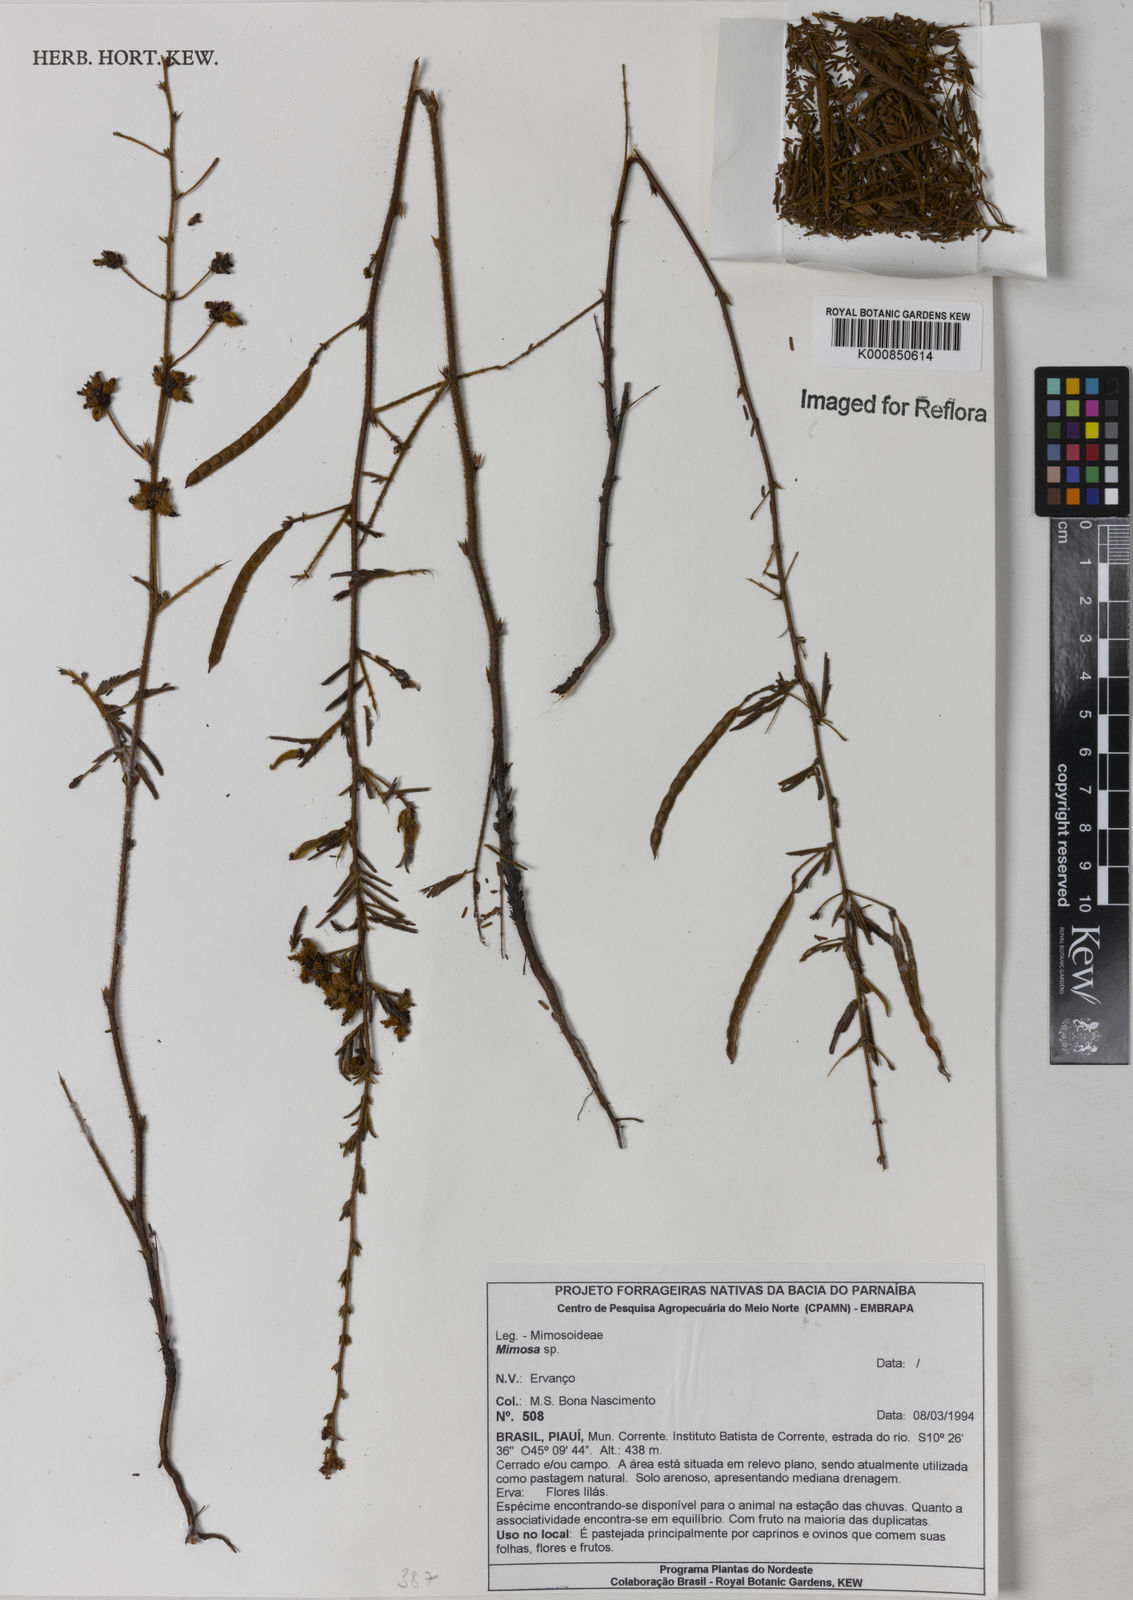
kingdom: Plantae
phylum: Tracheophyta
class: Magnoliopsida
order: Fabales
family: Fabaceae
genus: Mimosa
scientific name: Mimosa
